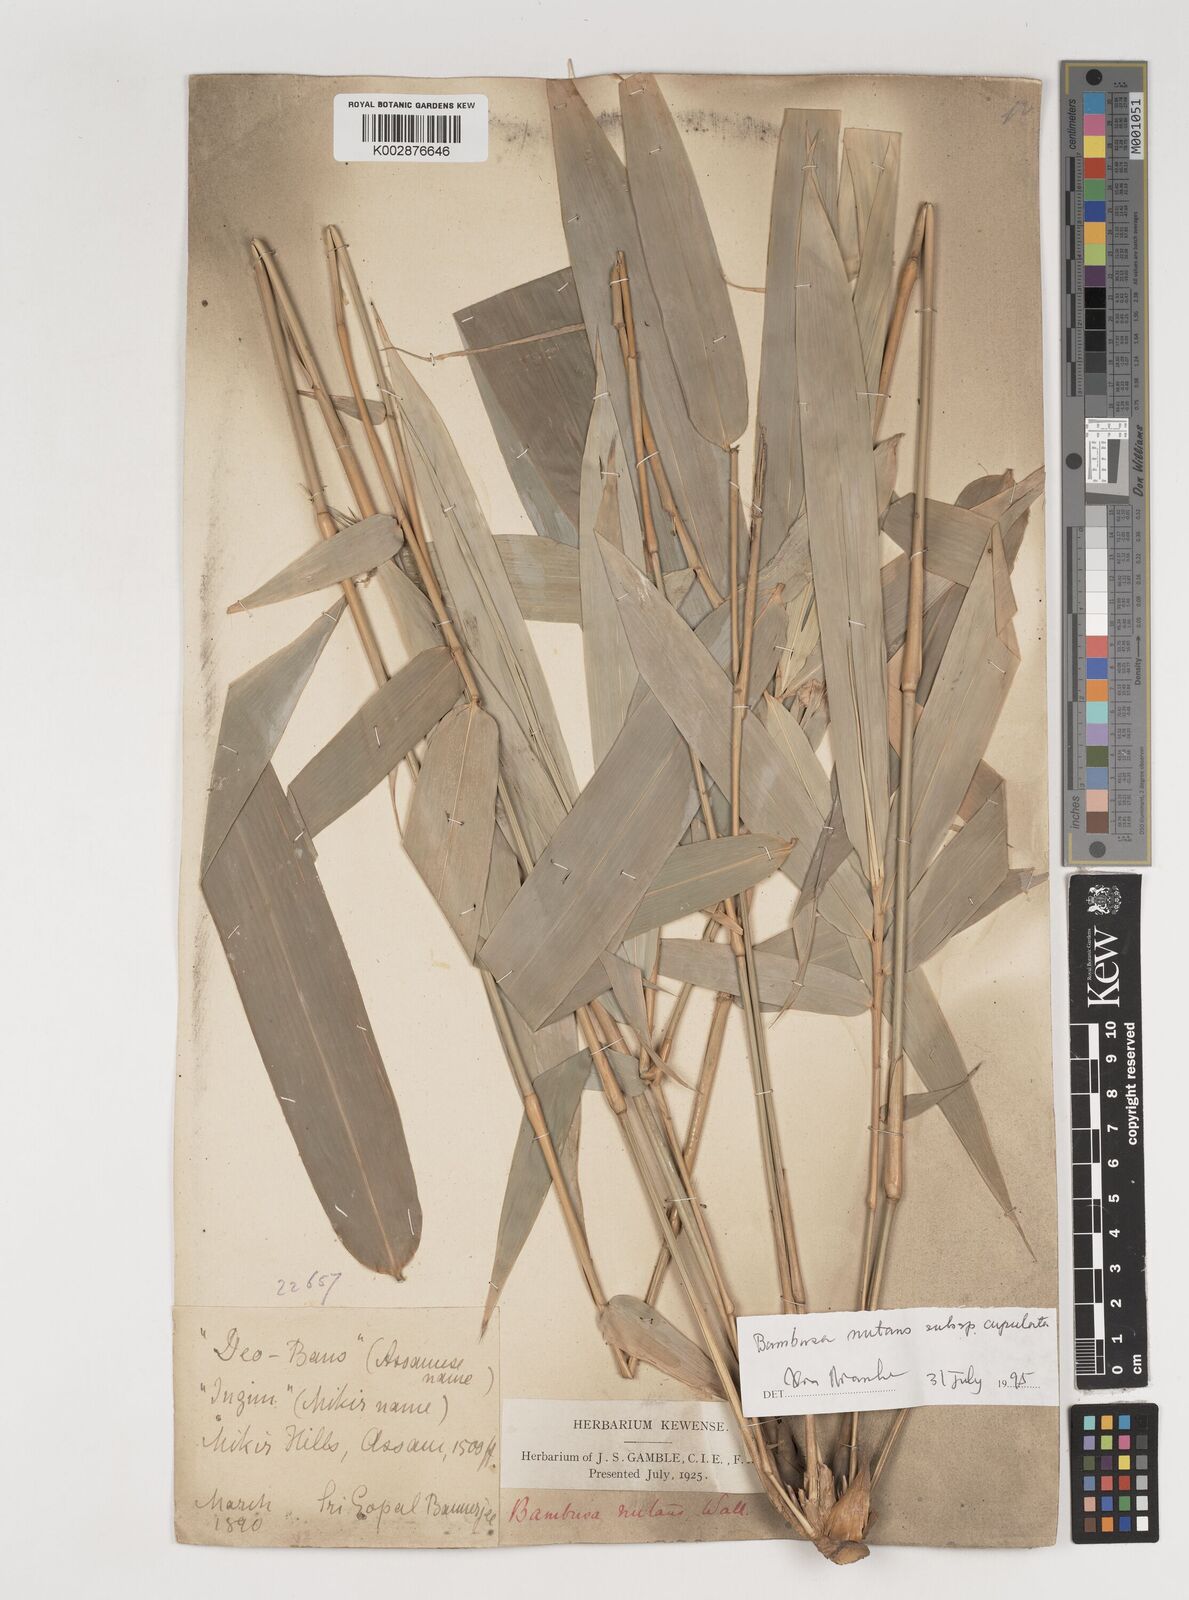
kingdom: Plantae
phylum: Tracheophyta
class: Liliopsida
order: Poales
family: Poaceae
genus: Bambusa
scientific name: Bambusa nutans
